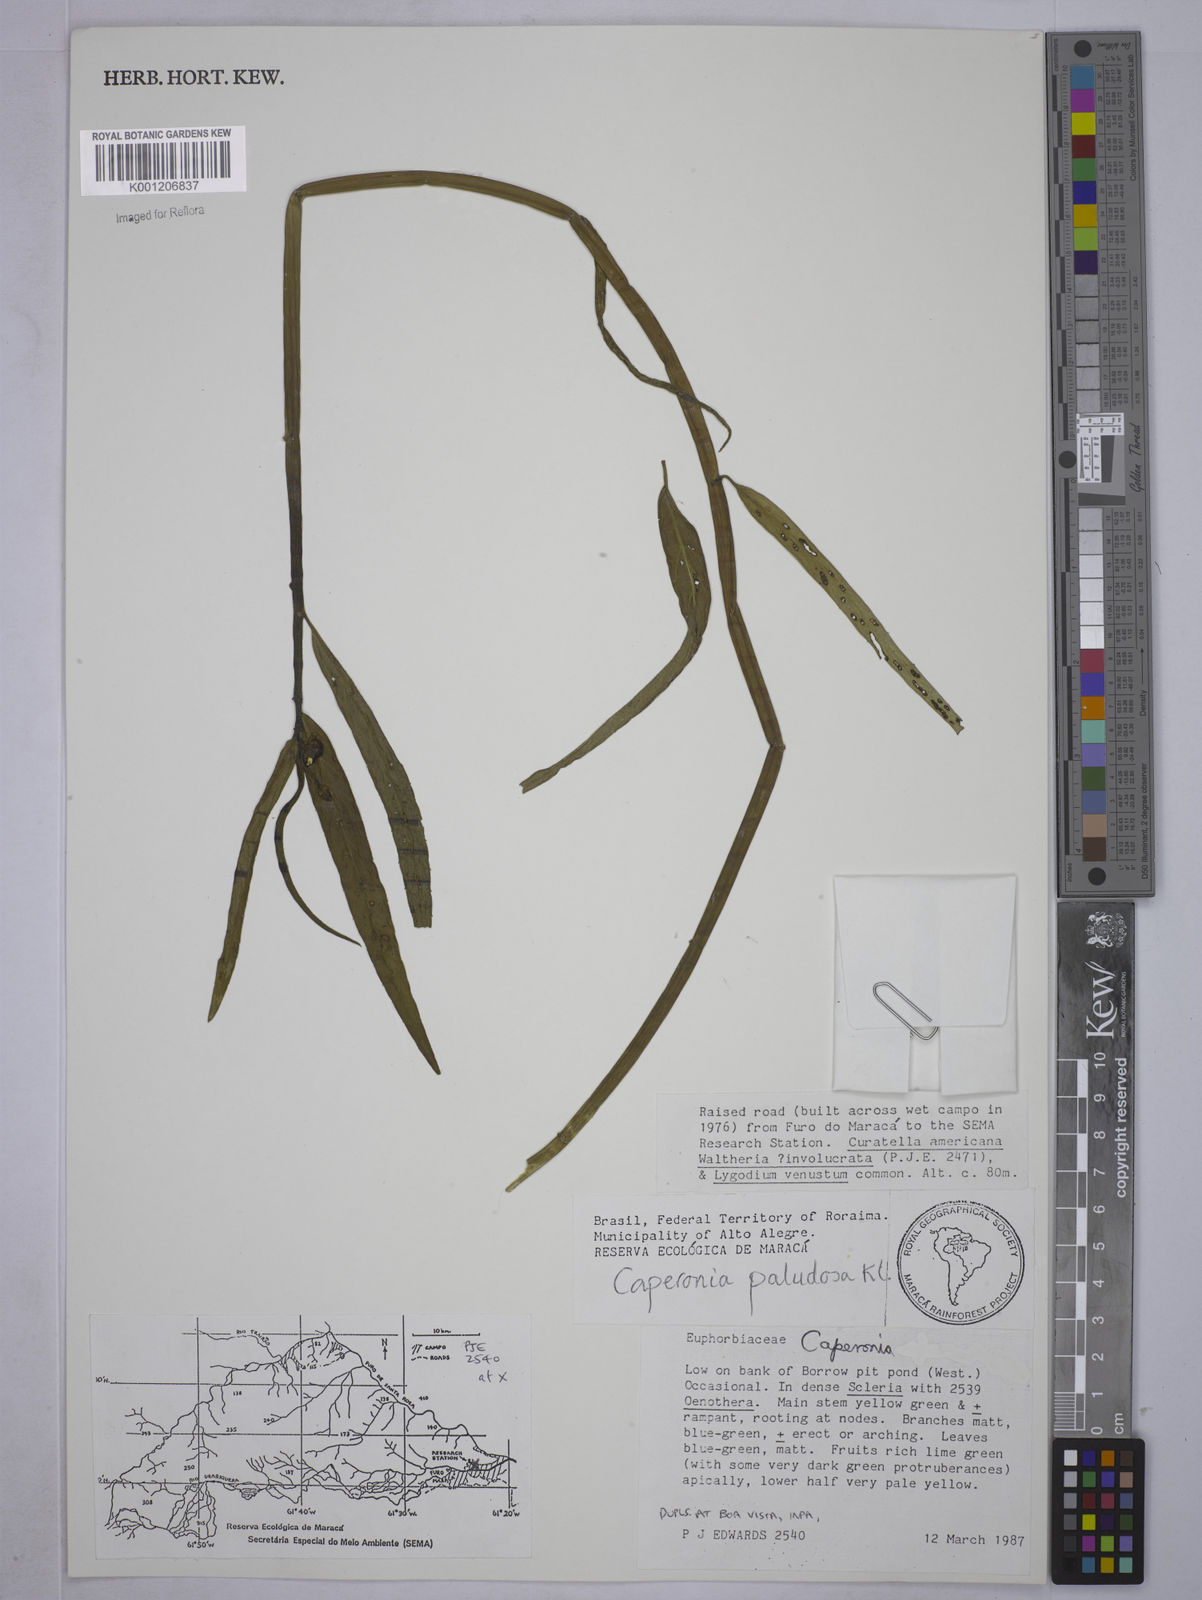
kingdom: Plantae
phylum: Tracheophyta
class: Magnoliopsida
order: Malpighiales
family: Euphorbiaceae
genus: Caperonia
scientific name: Caperonia castaneifolia
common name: Chestnutleaf false croton
